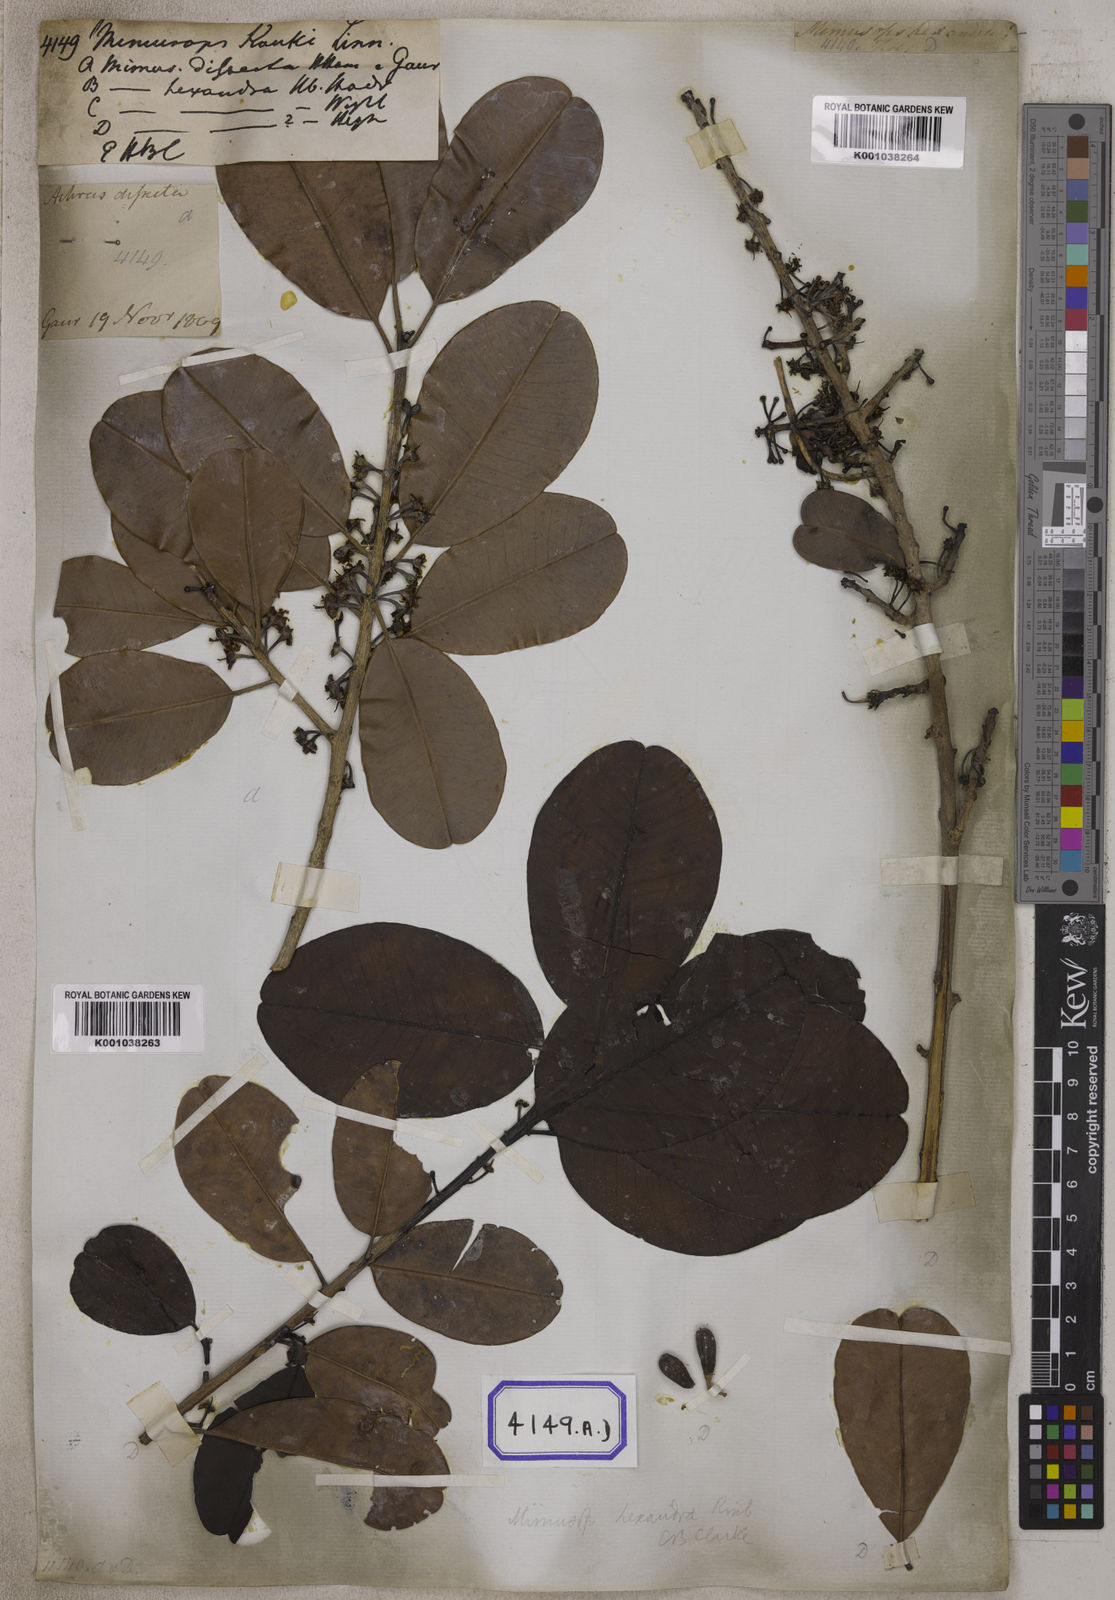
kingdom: Plantae
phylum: Tracheophyta
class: Magnoliopsida
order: Ericales
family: Sapotaceae
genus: Manilkara
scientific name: Manilkara kauki
